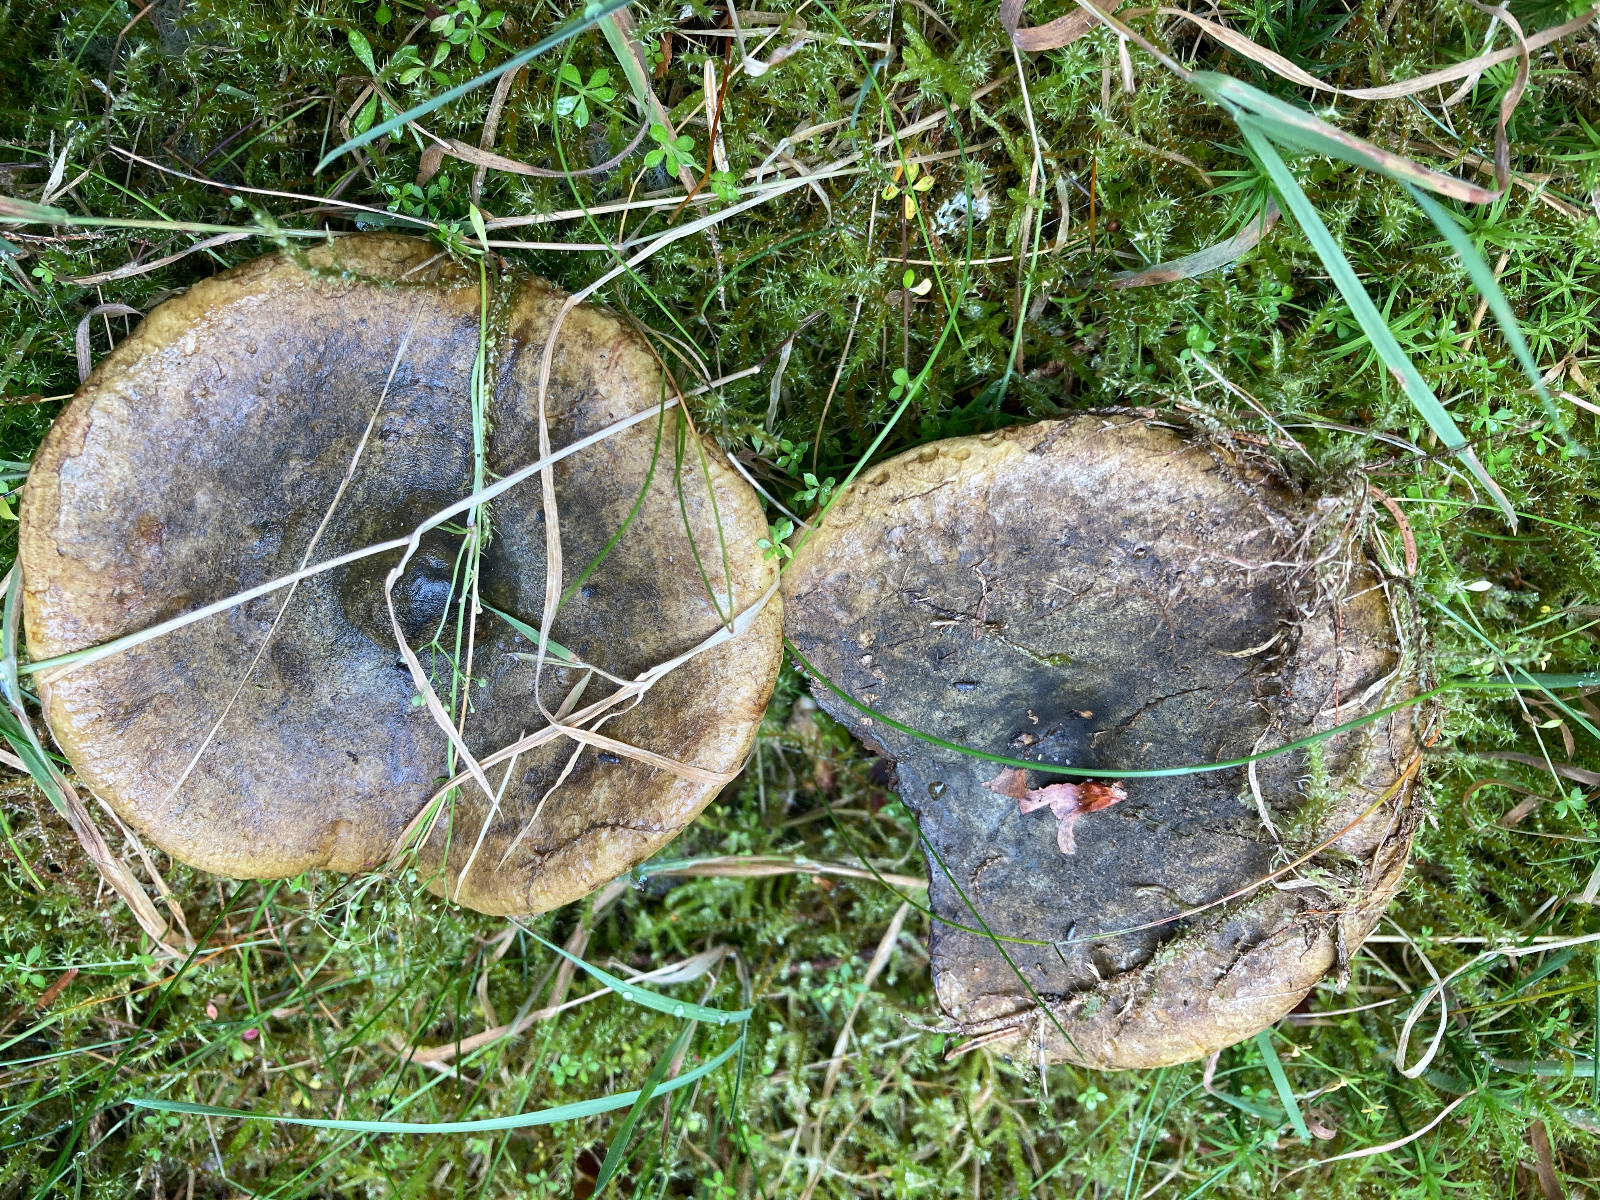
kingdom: Fungi
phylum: Basidiomycota
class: Agaricomycetes
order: Russulales
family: Russulaceae
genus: Lactarius
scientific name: Lactarius necator
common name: manddraber-mælkehat
